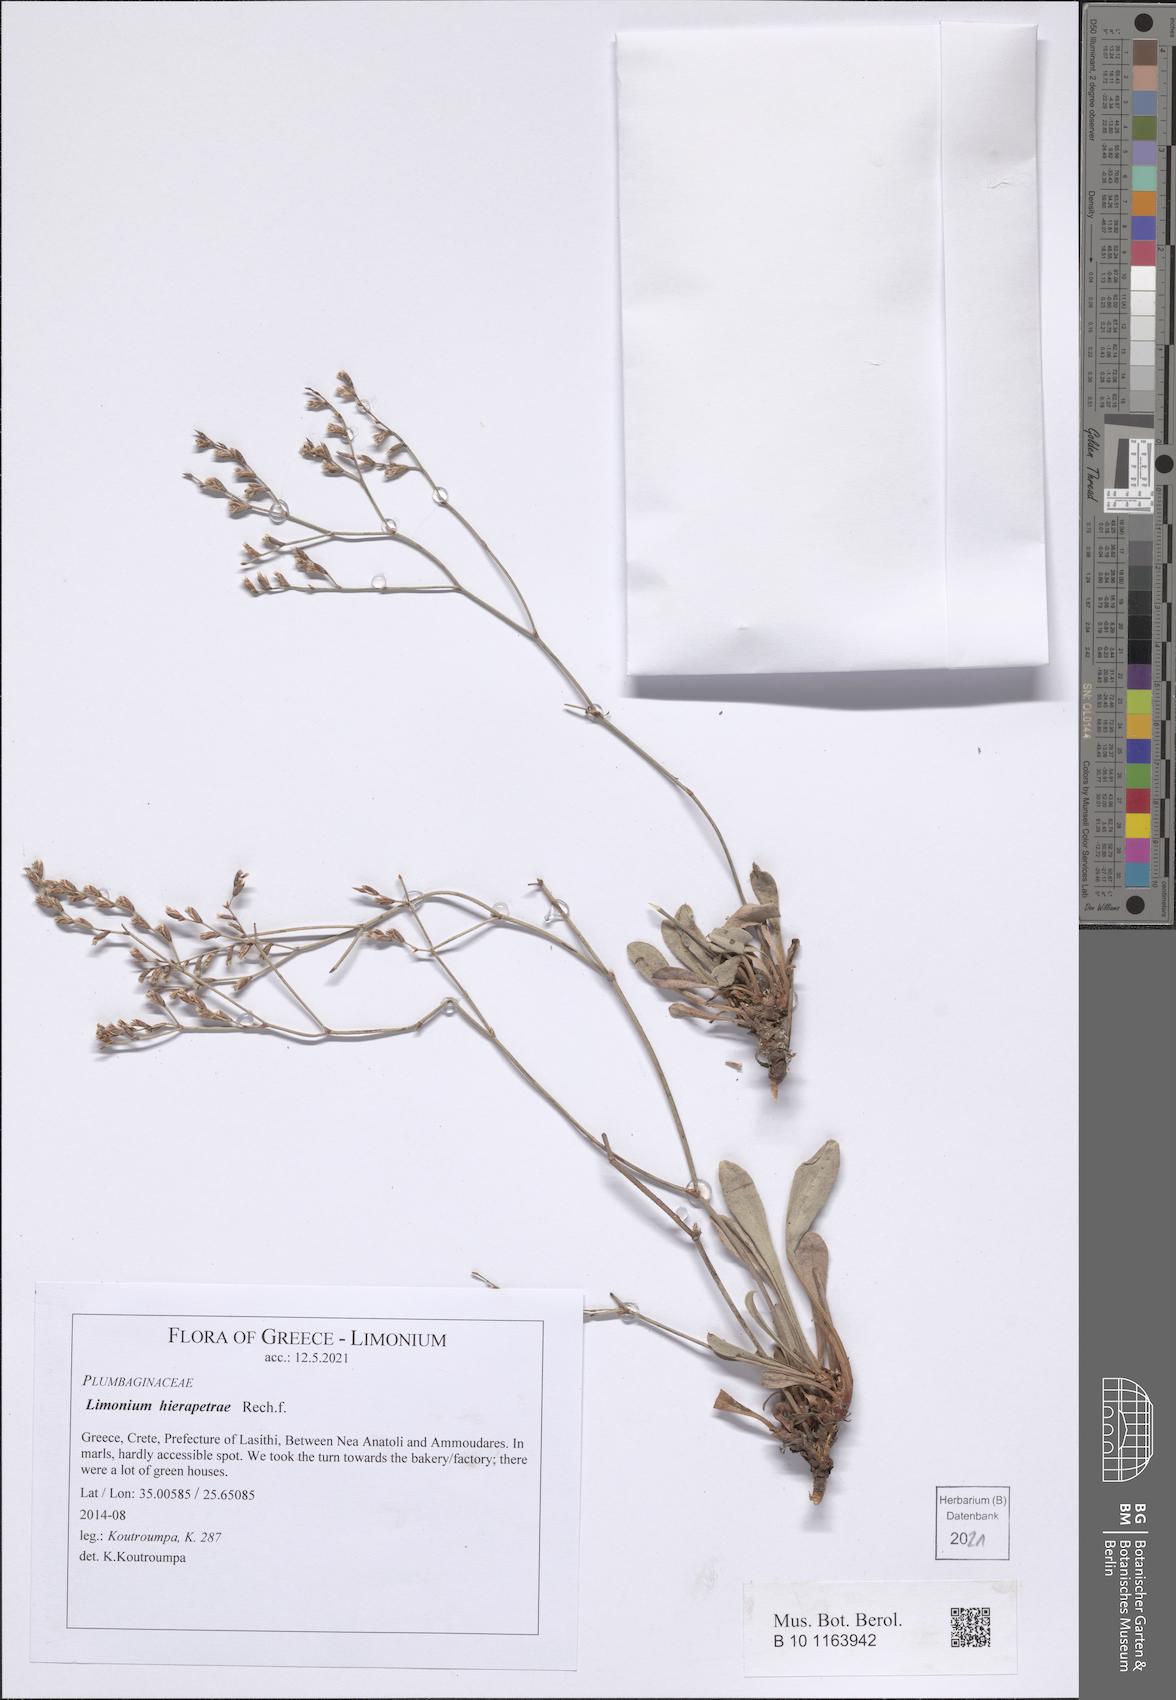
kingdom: Plantae
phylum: Tracheophyta
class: Magnoliopsida
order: Caryophyllales
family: Plumbaginaceae
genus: Limonium
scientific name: Limonium hierapetrae
